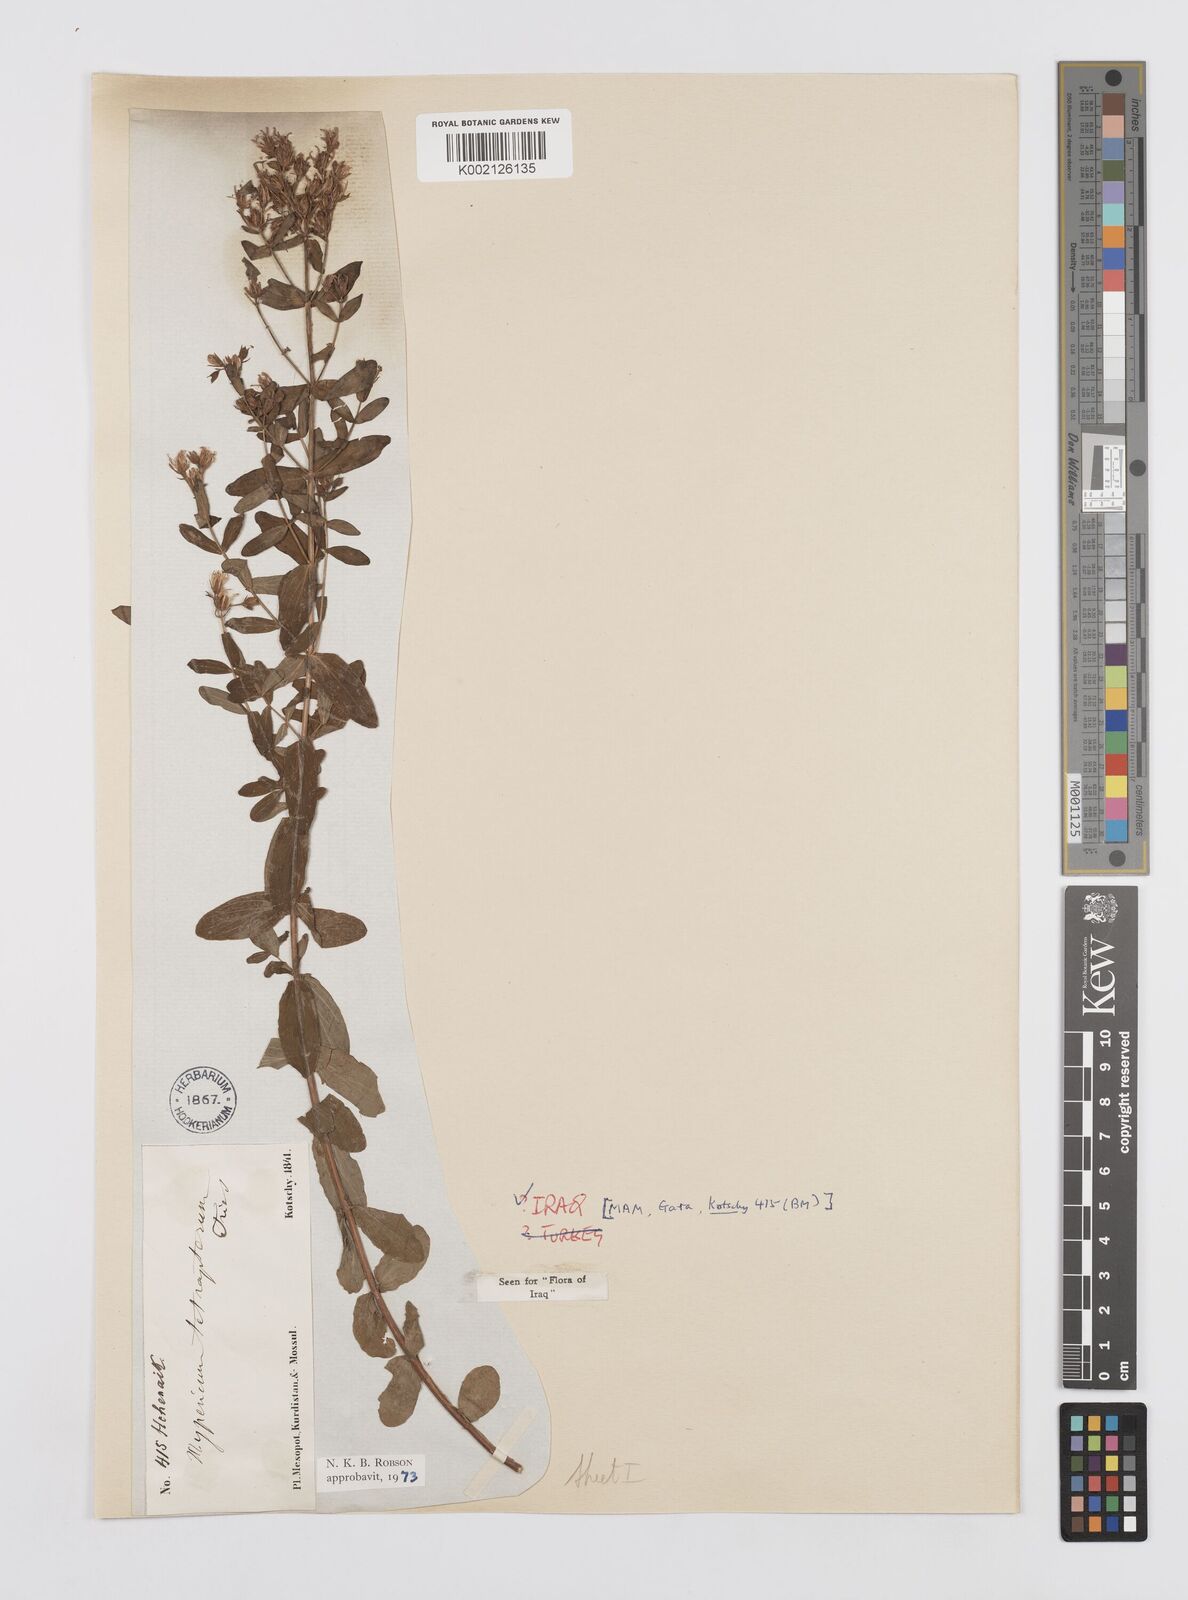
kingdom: Plantae
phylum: Tracheophyta
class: Magnoliopsida
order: Malpighiales
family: Hypericaceae
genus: Hypericum
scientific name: Hypericum tetrapterum
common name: Square-stalked st. john's-wort
